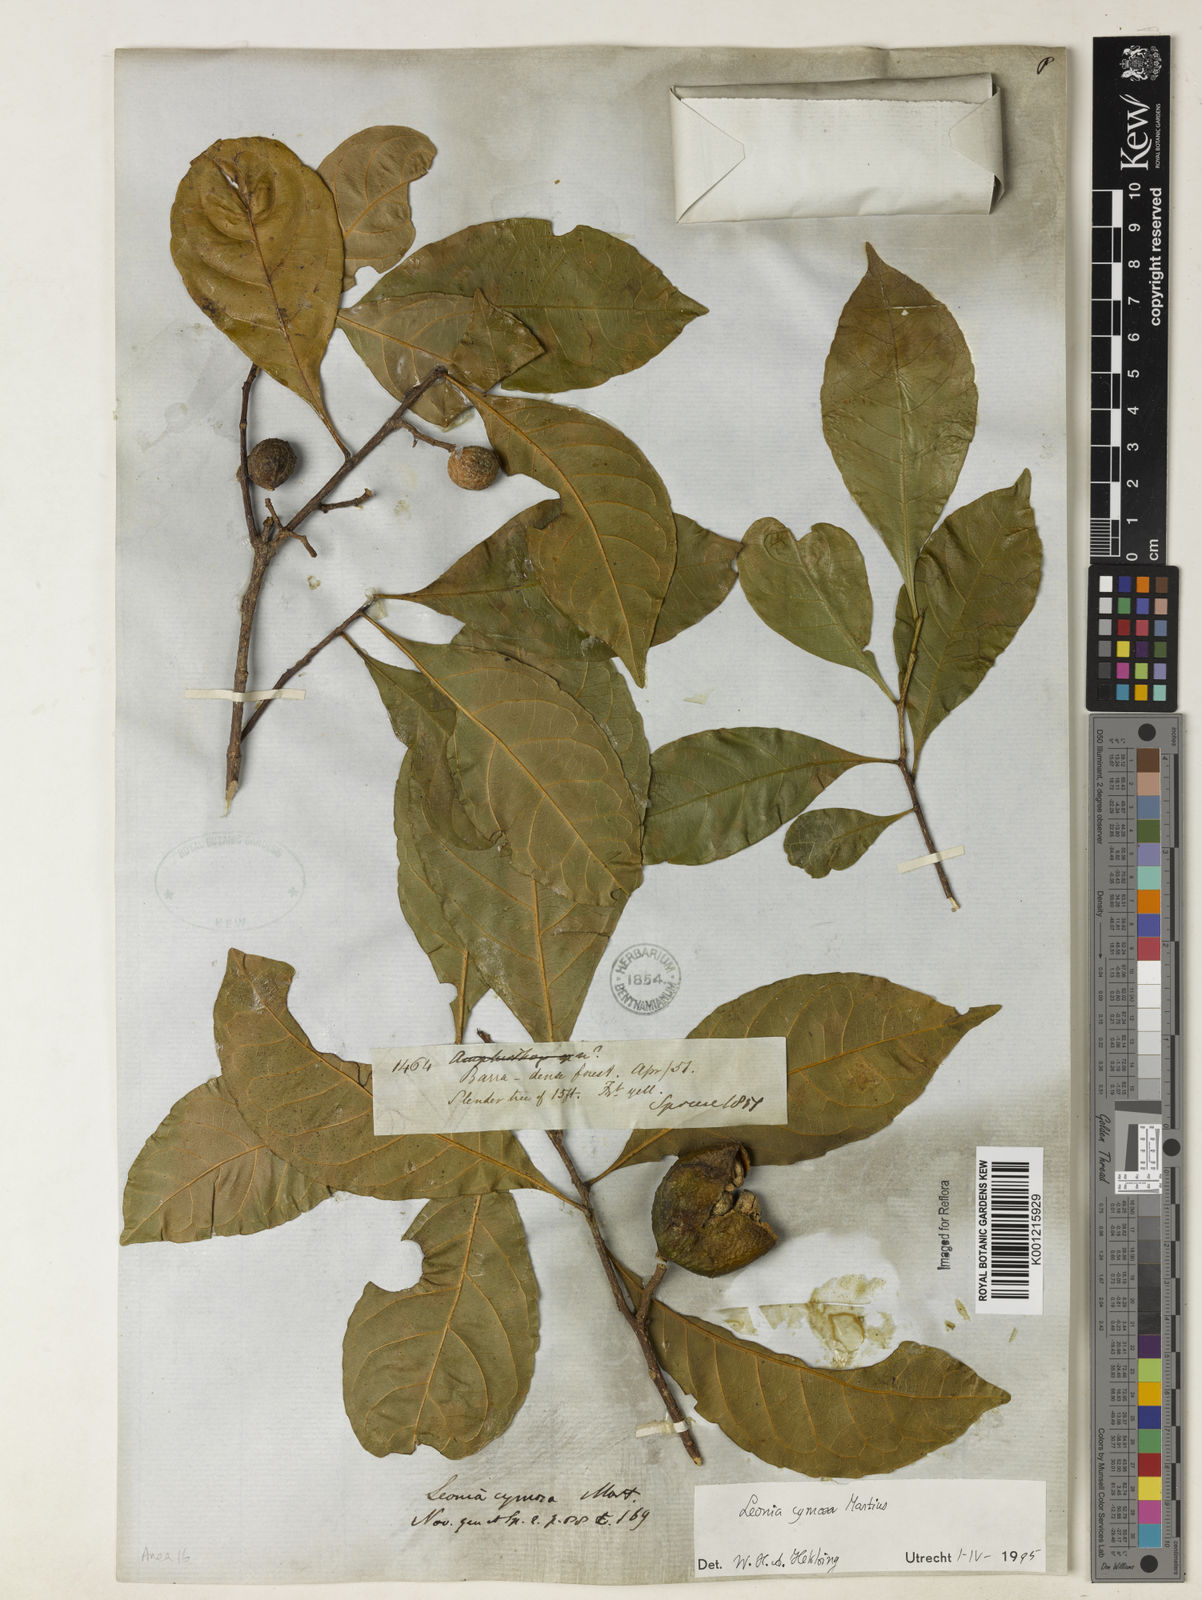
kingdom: Plantae
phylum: Tracheophyta
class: Magnoliopsida
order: Malpighiales
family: Violaceae
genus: Leonia
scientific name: Leonia cymosa
